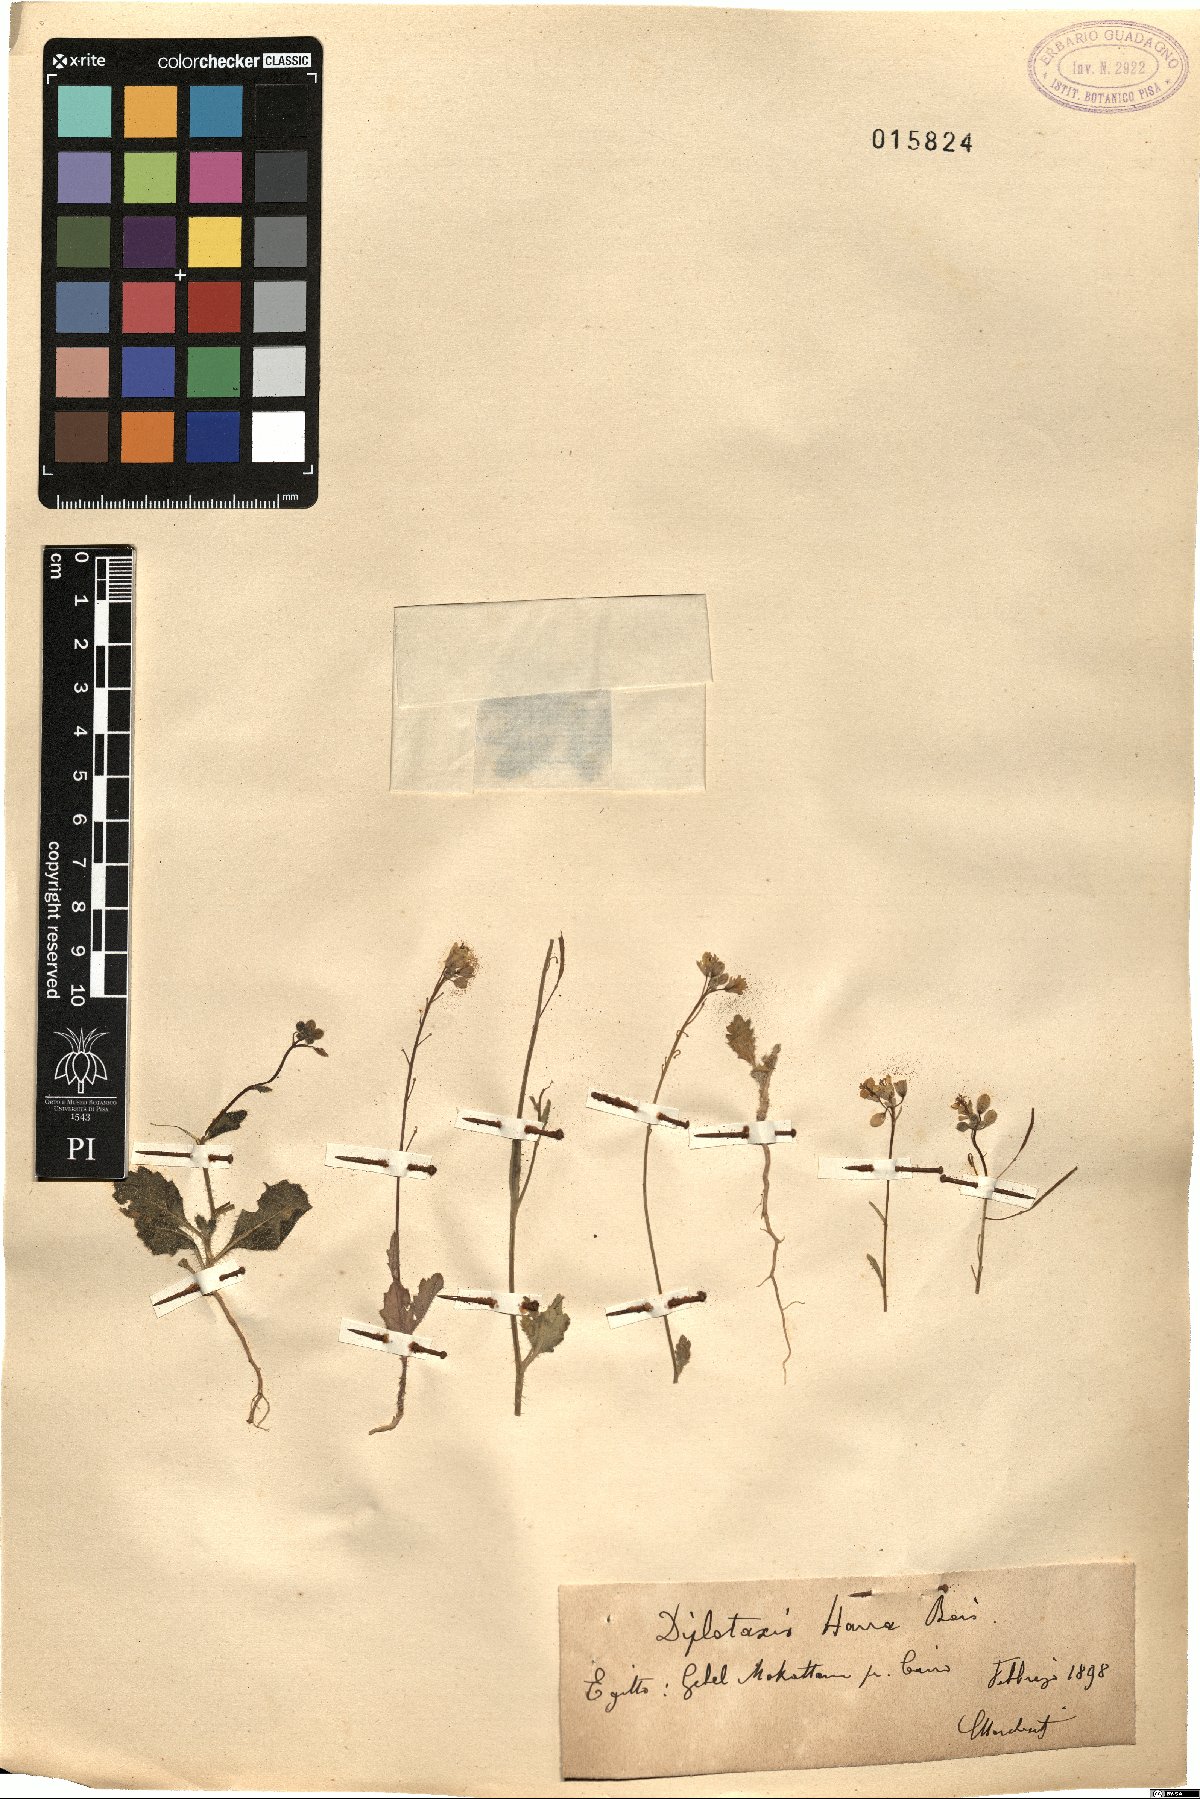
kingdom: Plantae
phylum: Tracheophyta
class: Magnoliopsida
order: Brassicales
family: Brassicaceae
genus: Diplotaxis
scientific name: Diplotaxis harra
